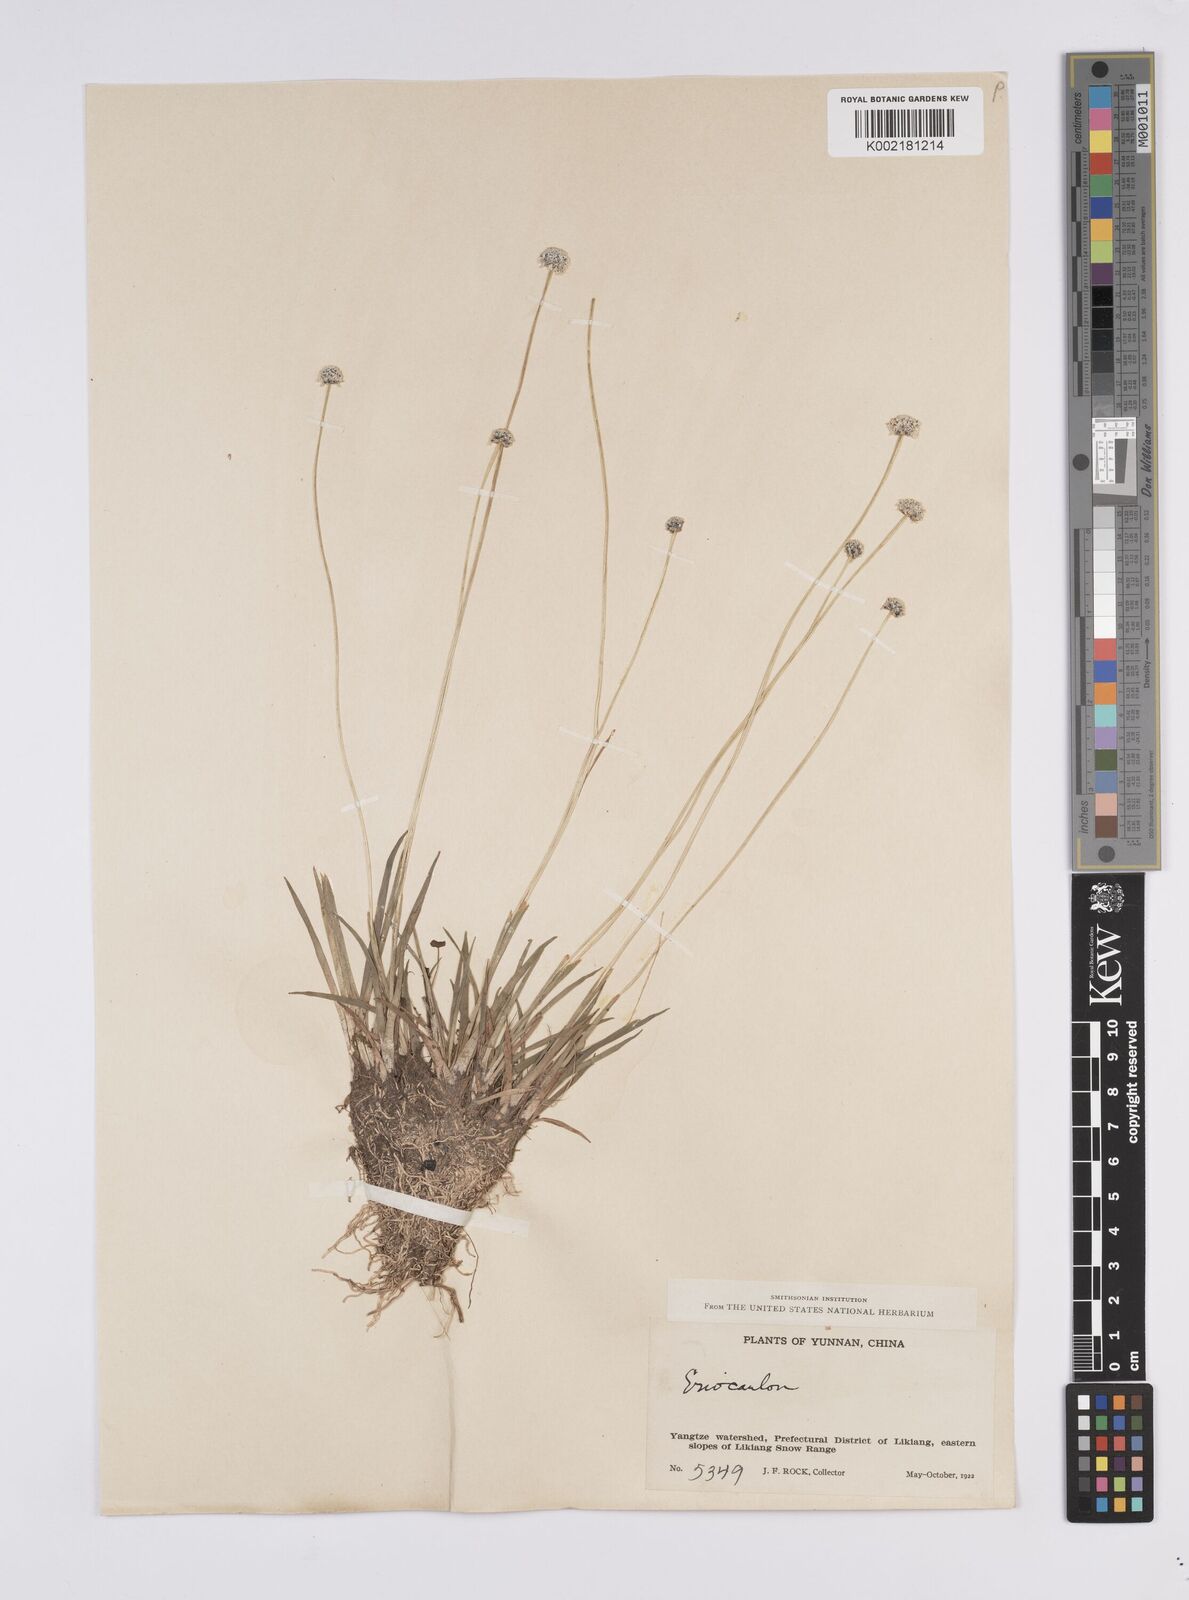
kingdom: Plantae
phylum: Tracheophyta
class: Liliopsida
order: Poales
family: Eriocaulaceae
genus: Eriocaulon
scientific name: Eriocaulon
